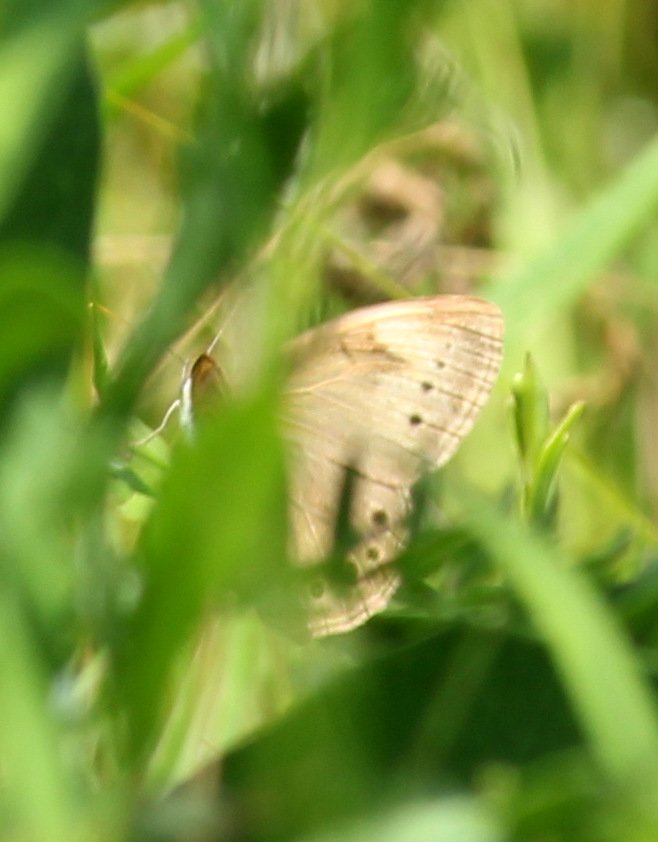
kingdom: Animalia
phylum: Arthropoda
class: Insecta
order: Lepidoptera
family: Nymphalidae
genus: Lethe
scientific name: Lethe eurydice
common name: Eyed Brown
